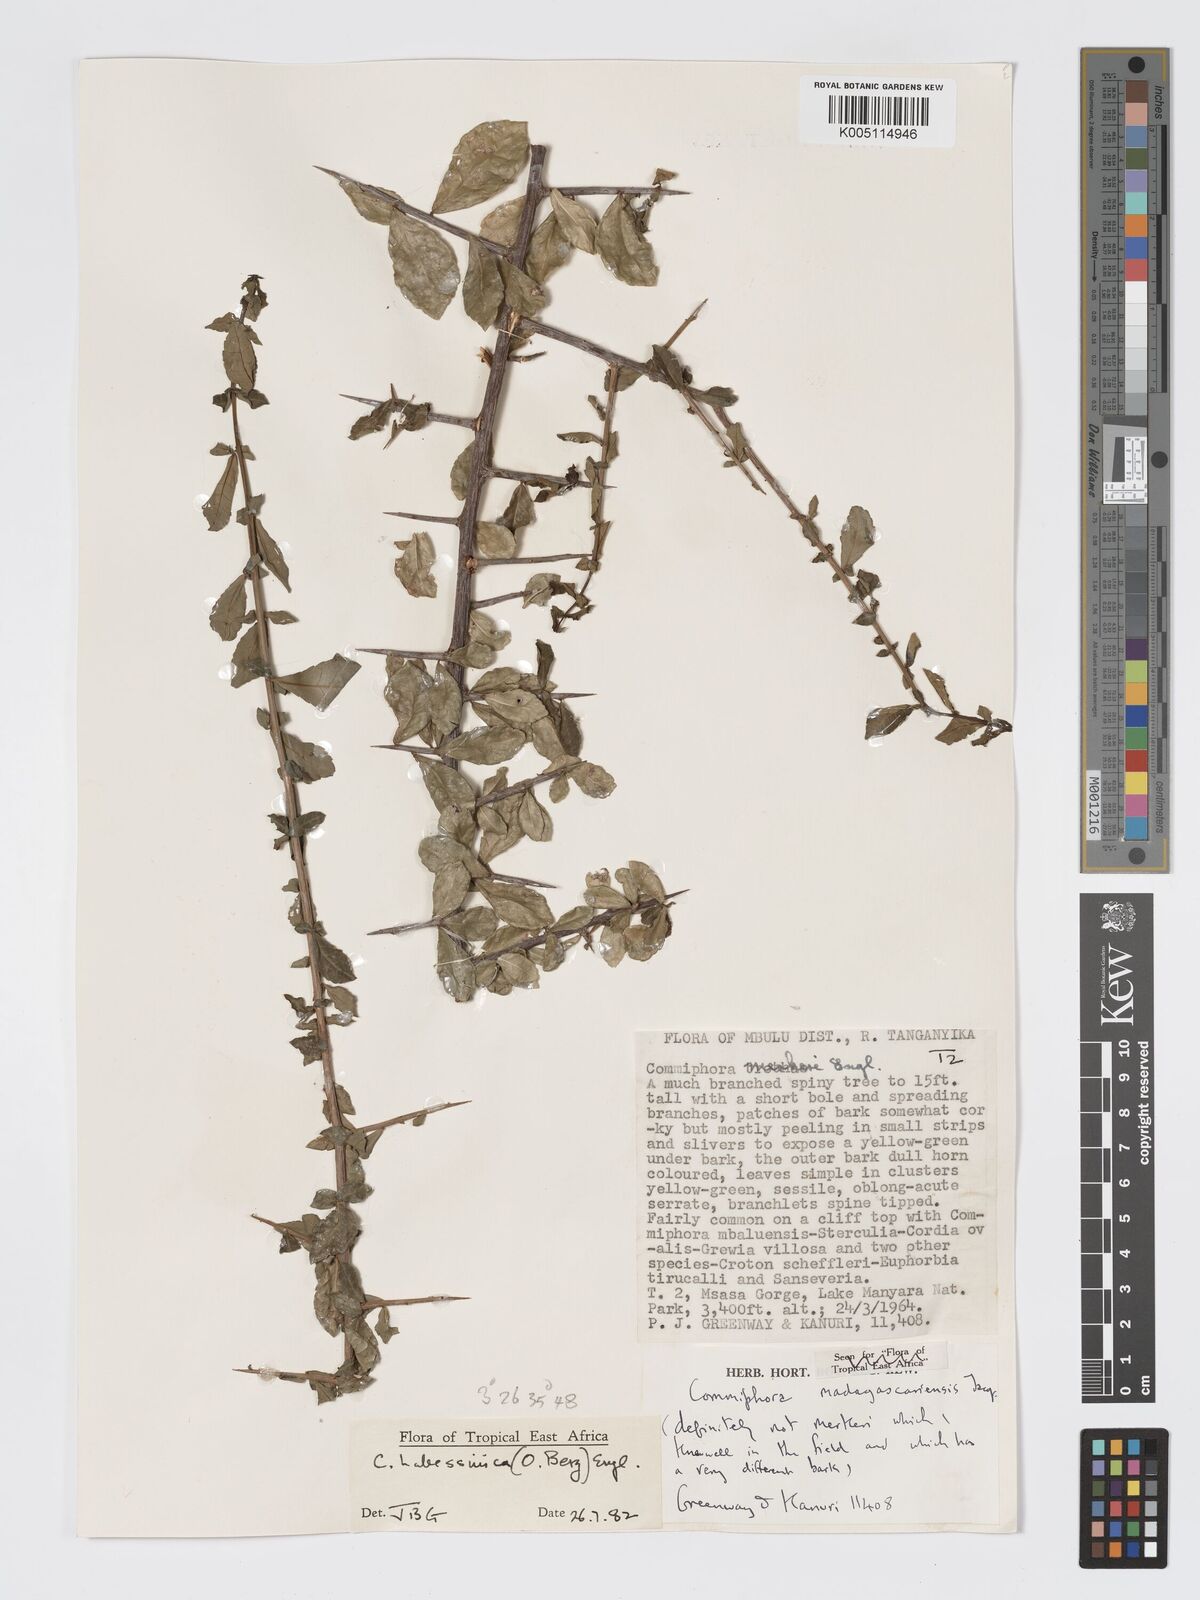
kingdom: Plantae
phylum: Tracheophyta
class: Magnoliopsida
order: Sapindales
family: Burseraceae
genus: Commiphora
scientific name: Commiphora kua
